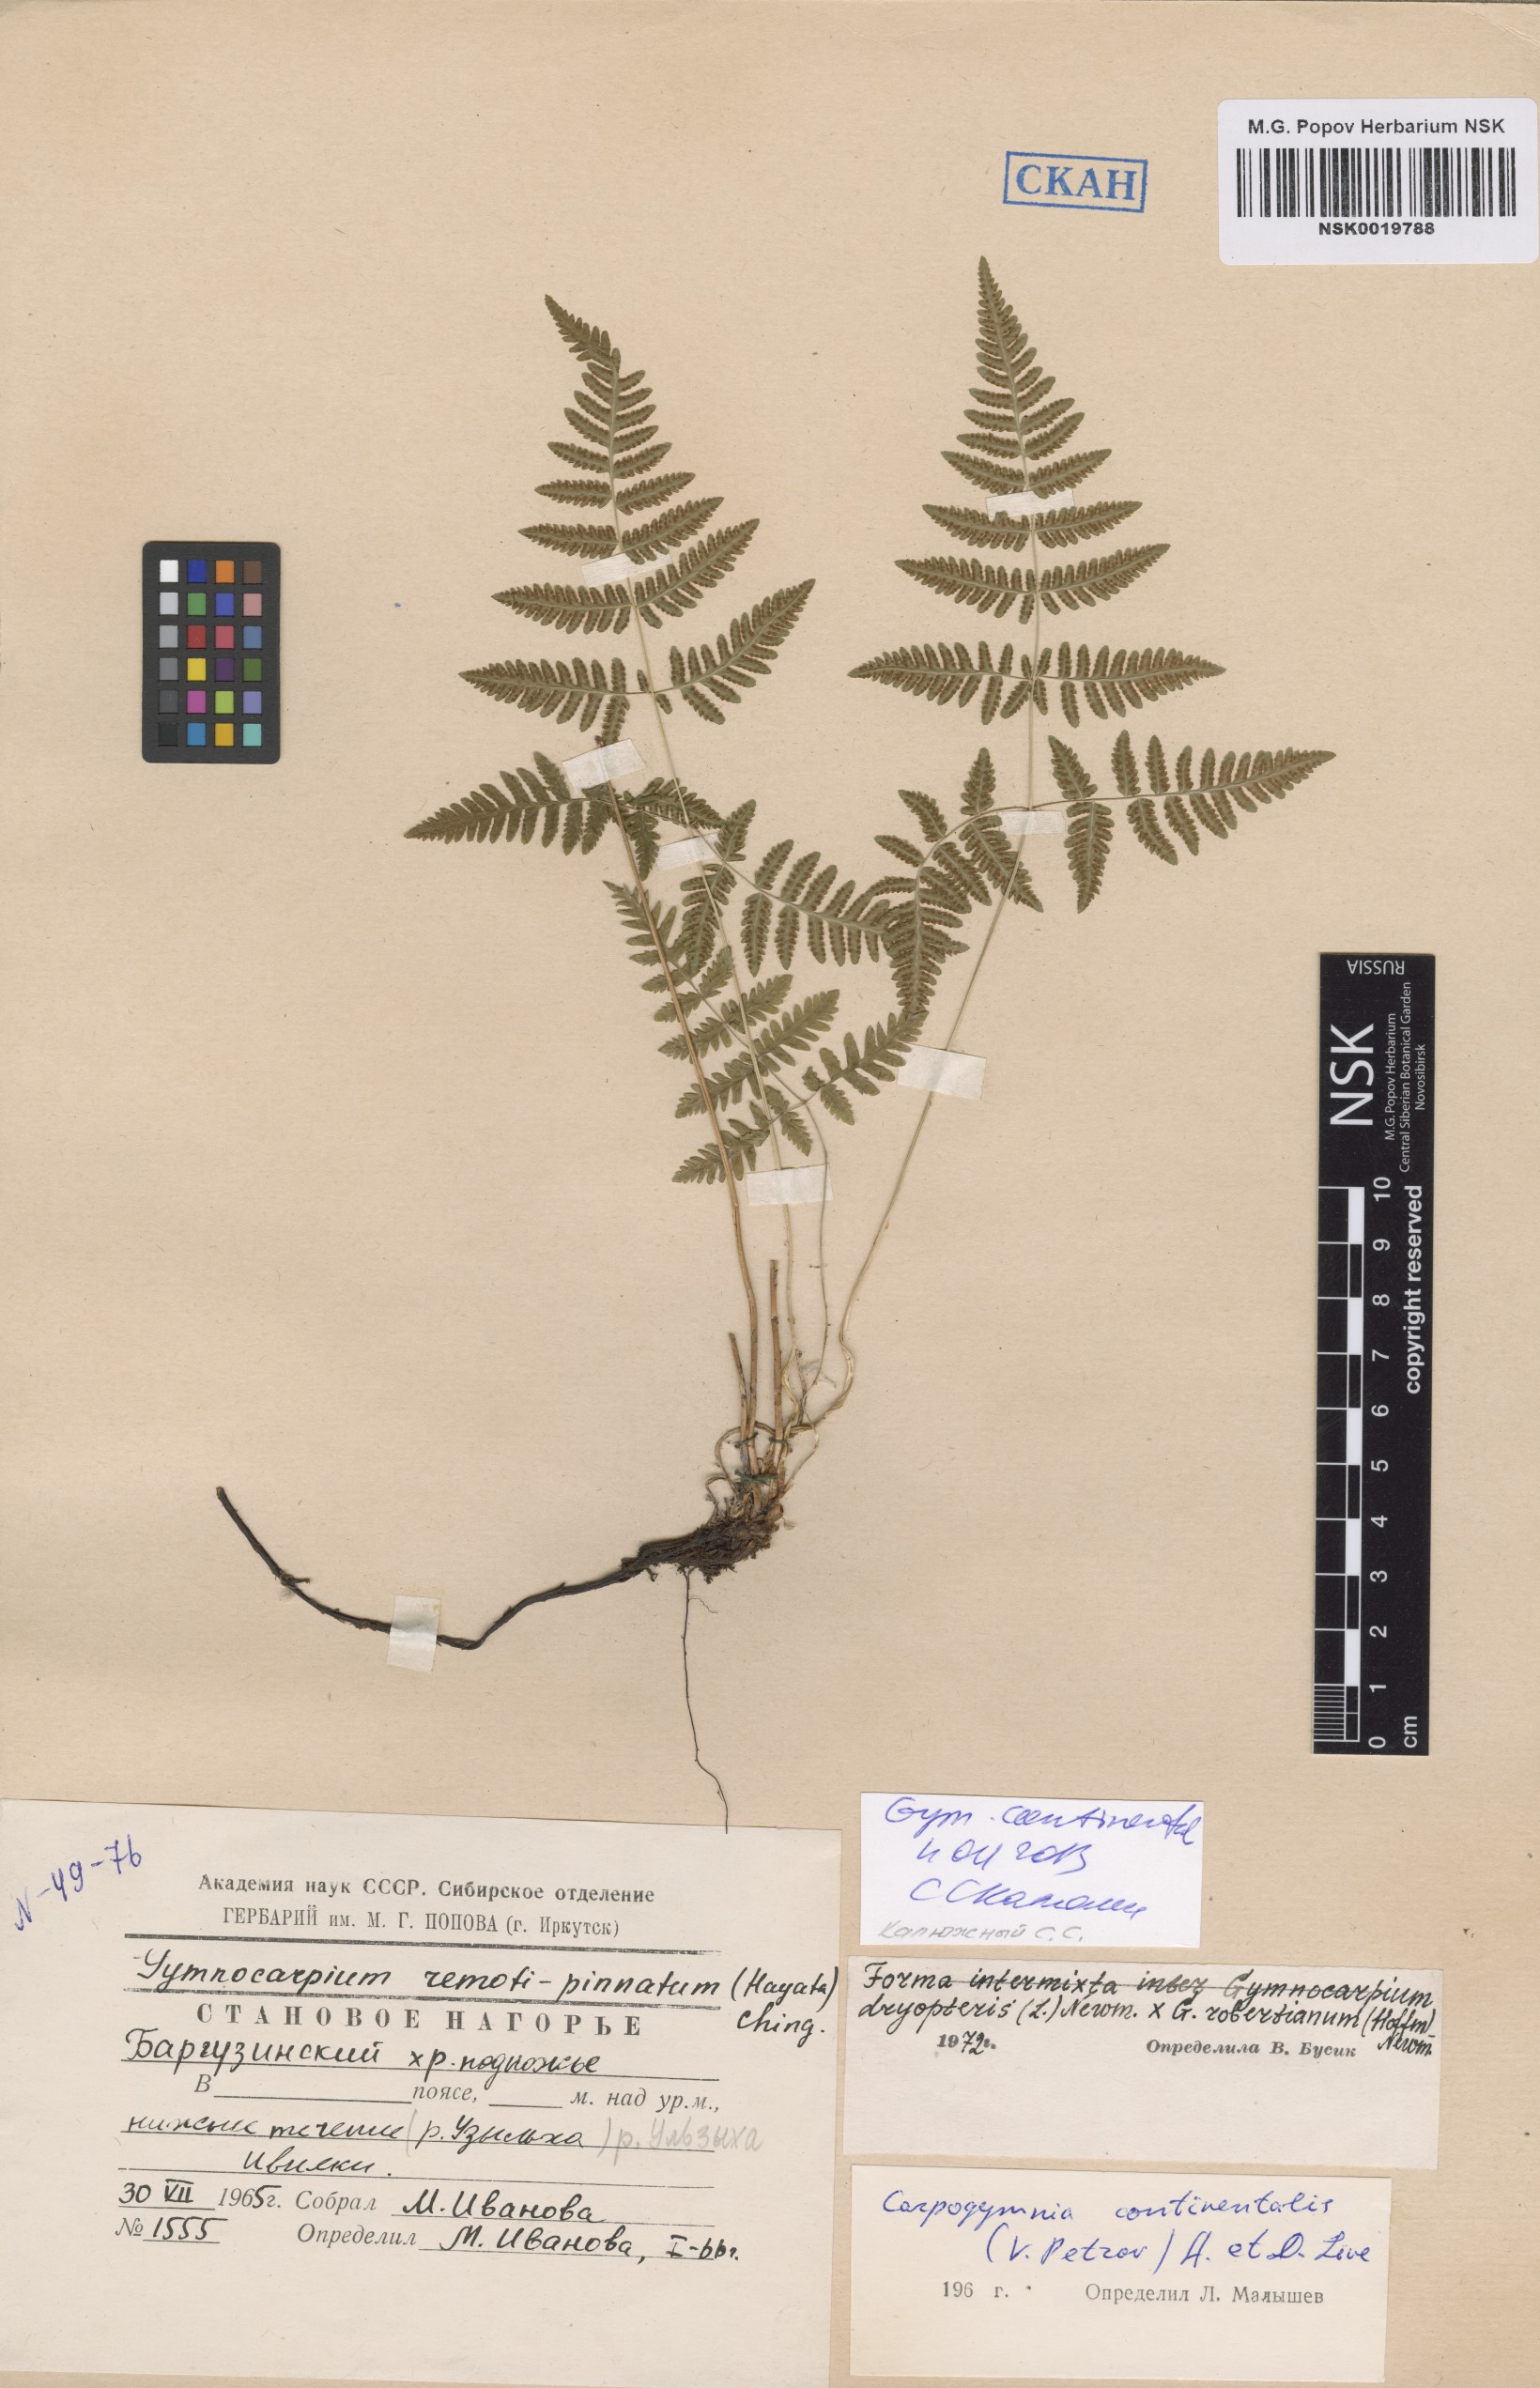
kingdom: Plantae
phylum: Tracheophyta
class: Polypodiopsida
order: Polypodiales
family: Cystopteridaceae
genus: Gymnocarpium
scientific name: Gymnocarpium continentale
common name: Asian oak fern
